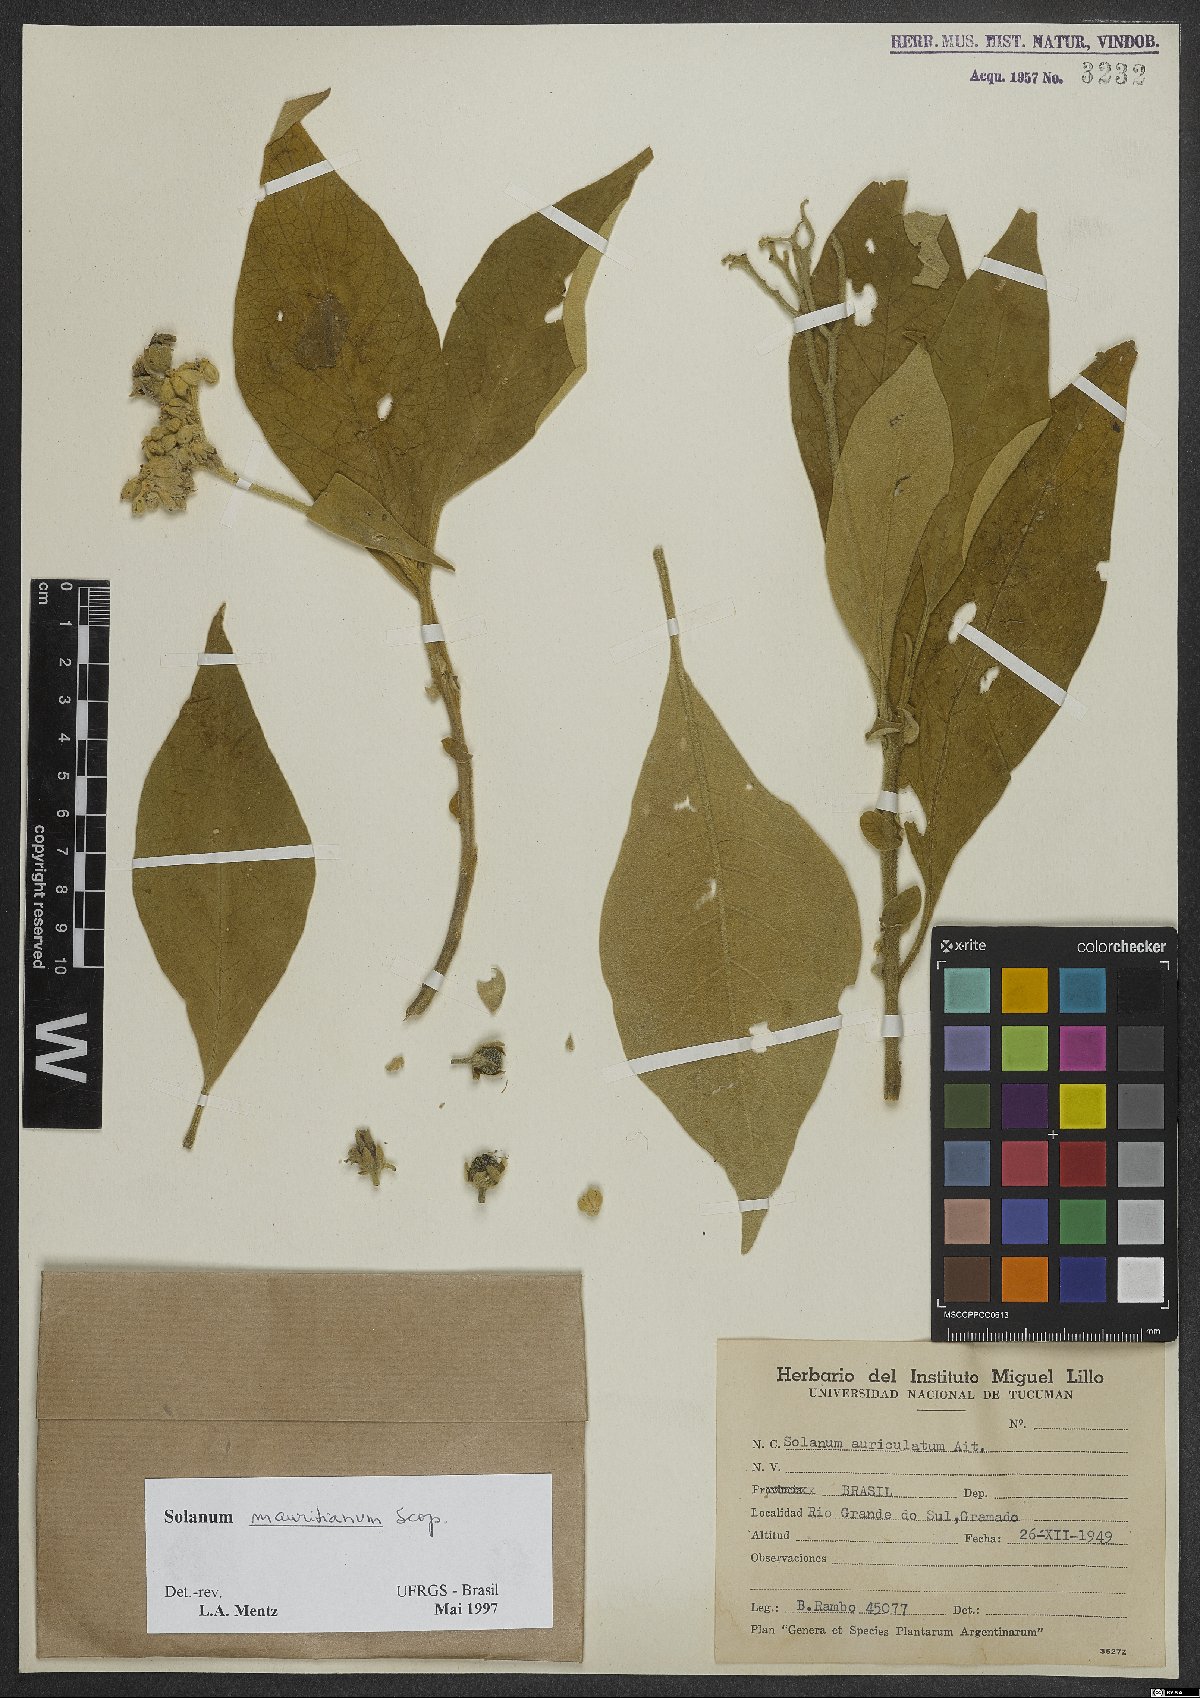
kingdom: Plantae
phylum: Tracheophyta
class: Magnoliopsida
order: Solanales
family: Solanaceae
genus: Solanum
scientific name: Solanum mauritianum
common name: Earleaf nightshade
